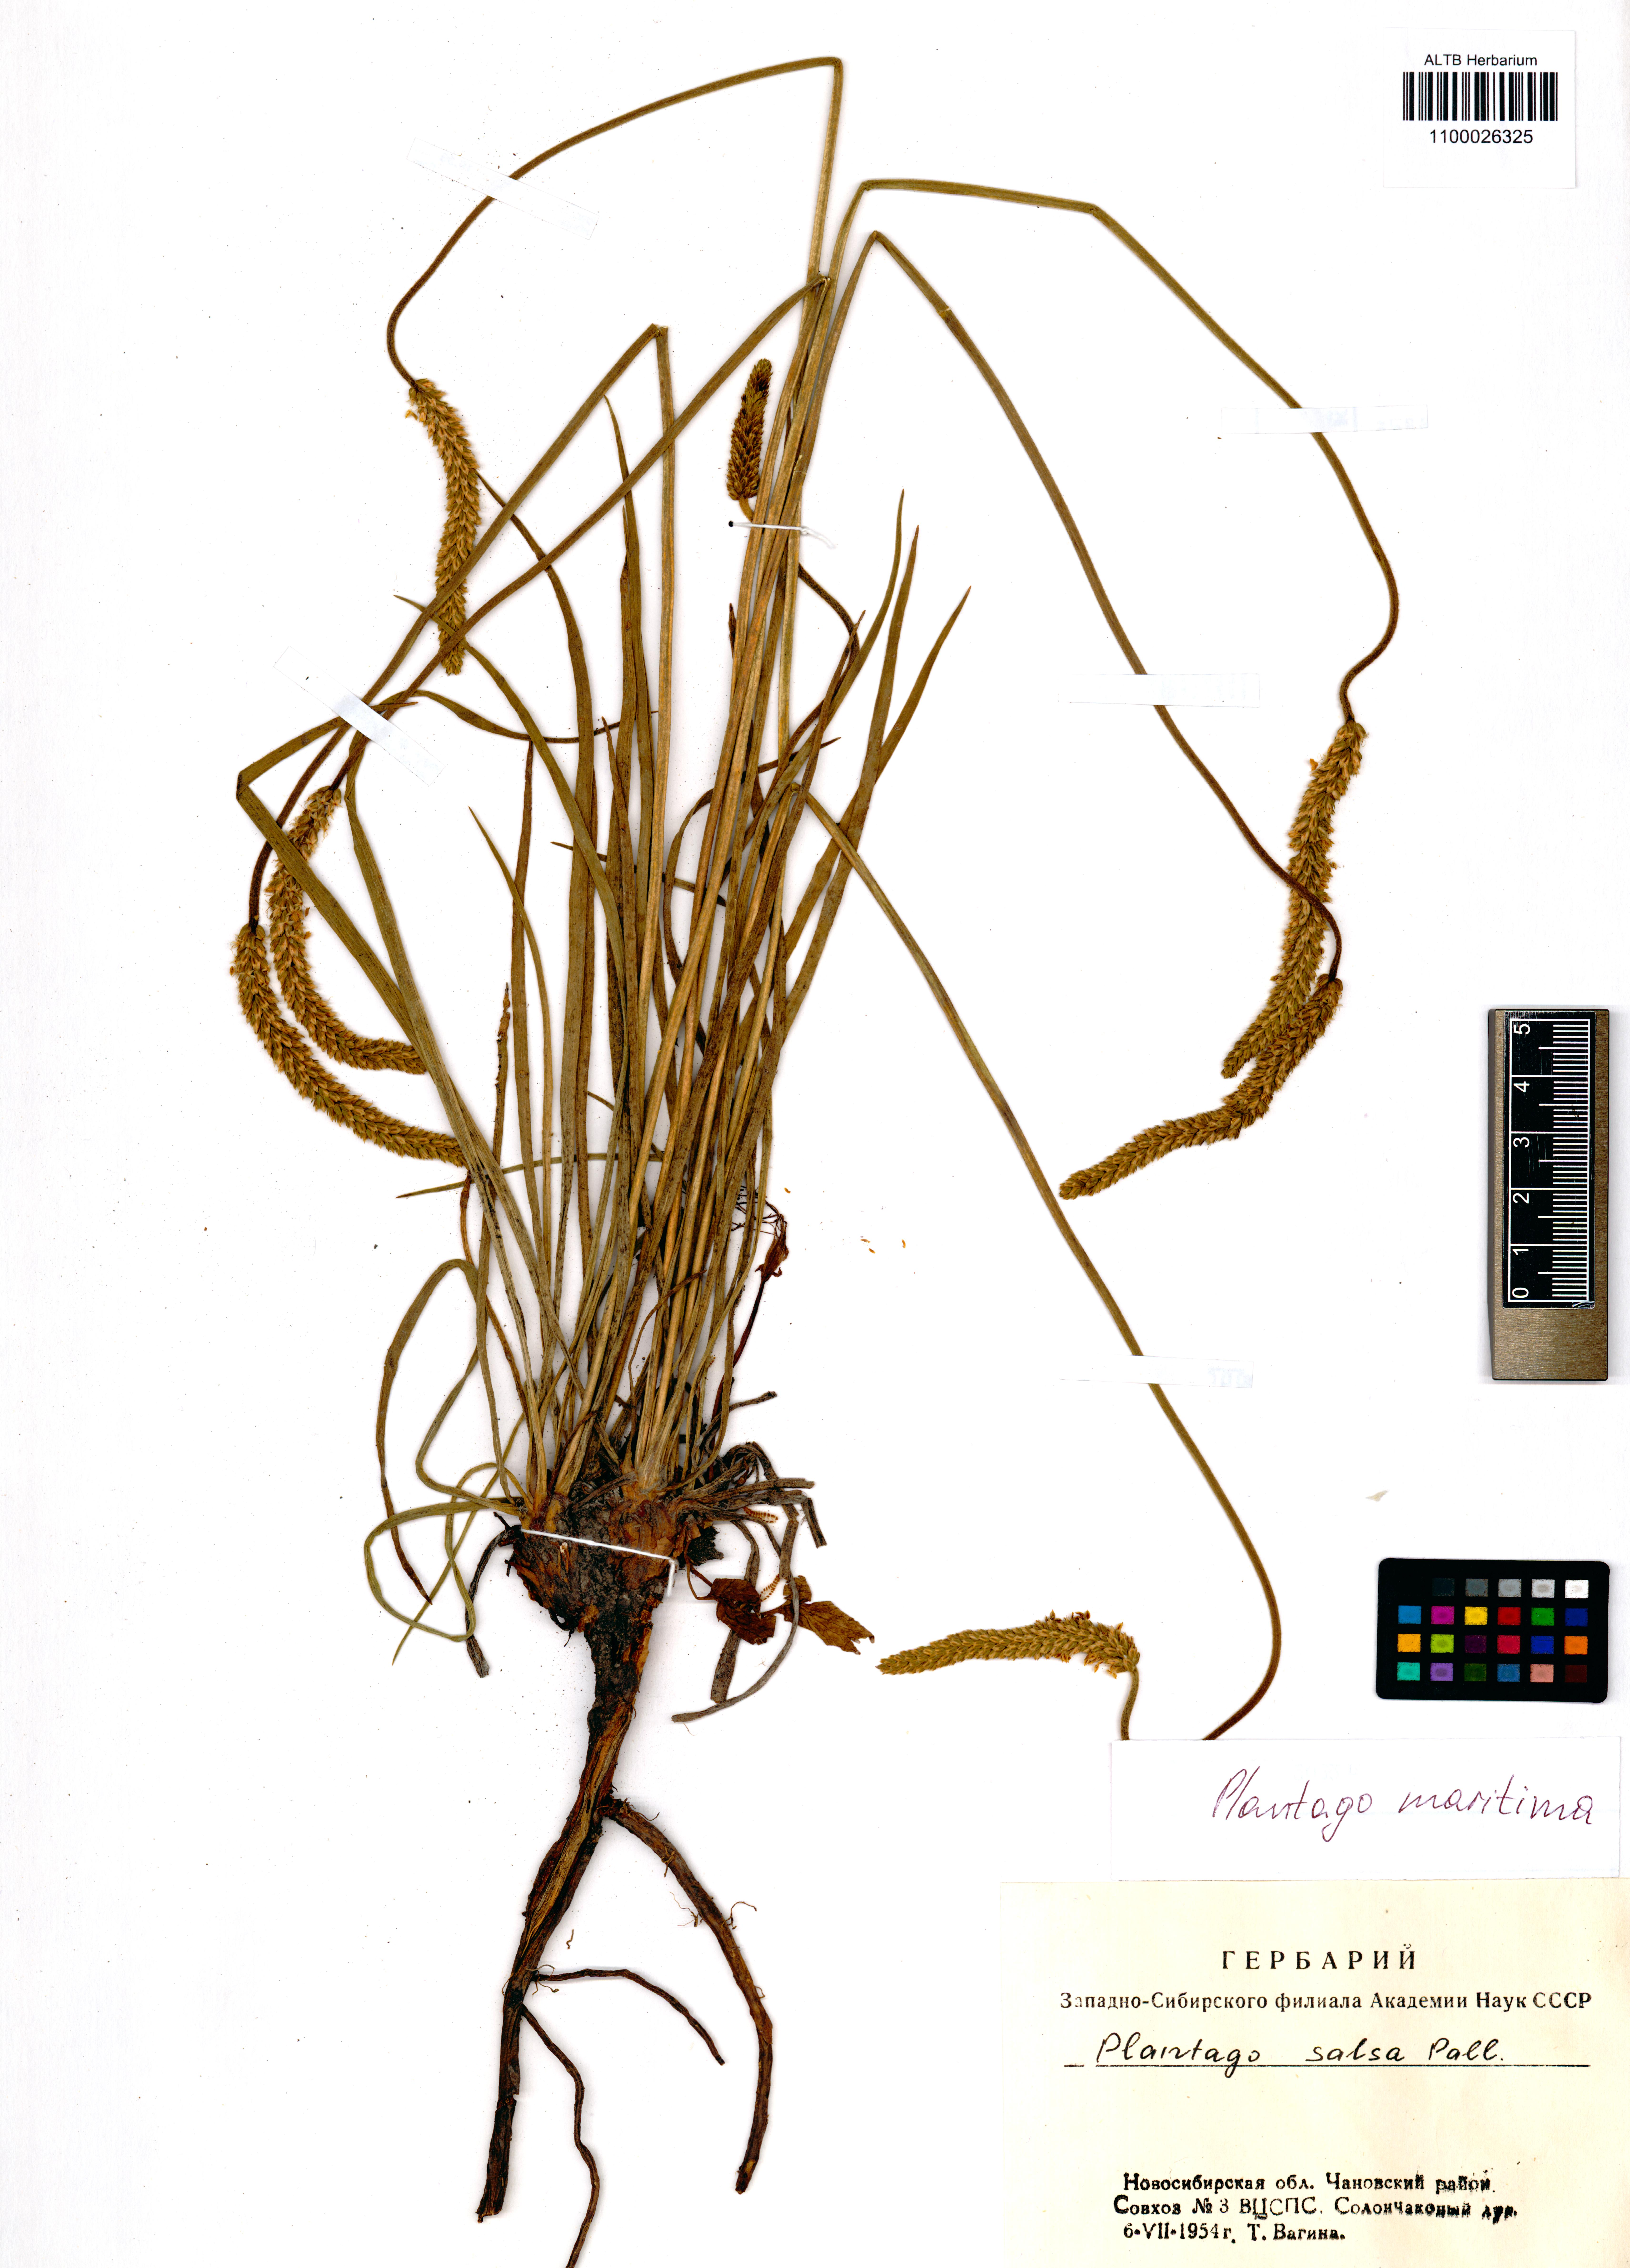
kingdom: Plantae
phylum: Tracheophyta
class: Magnoliopsida
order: Lamiales
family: Plantaginaceae
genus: Plantago
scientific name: Plantago maritima
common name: Sea plantain
